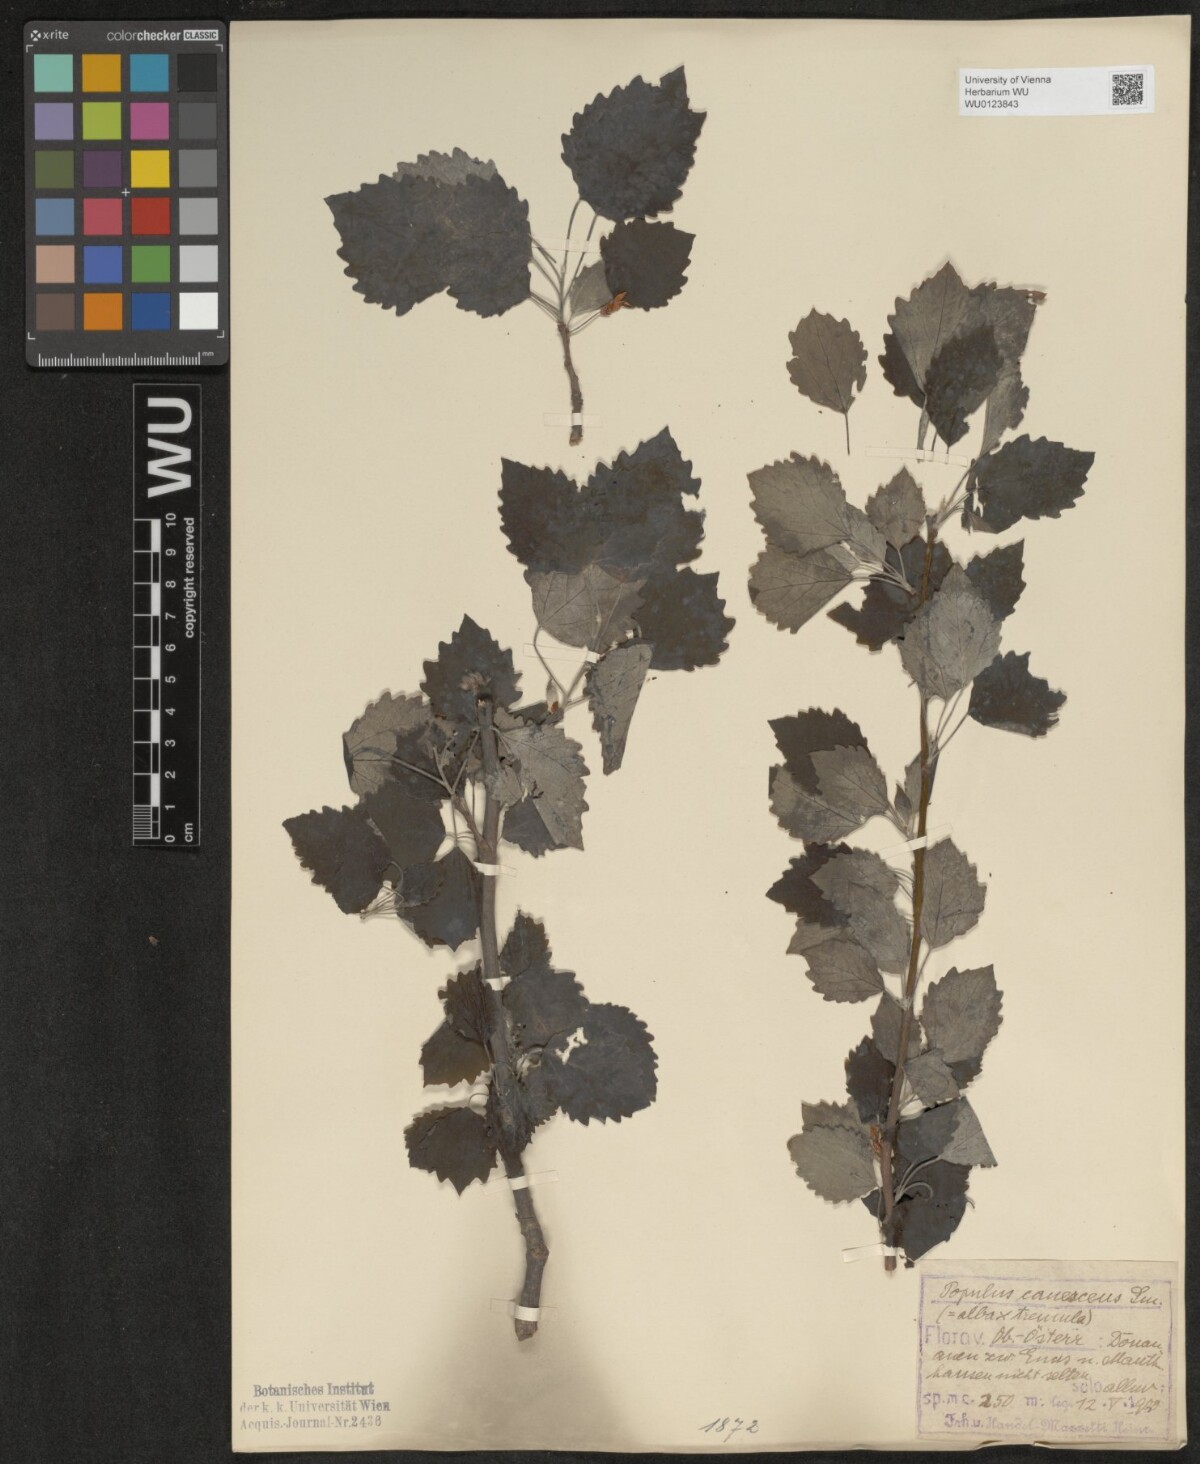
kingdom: Plantae
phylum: Tracheophyta
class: Magnoliopsida
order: Malpighiales
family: Salicaceae
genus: Populus
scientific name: Populus canescens
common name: Gray poplar
